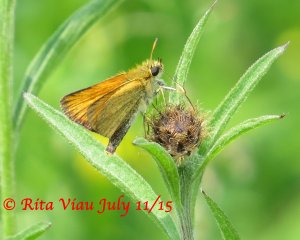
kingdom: Animalia
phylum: Arthropoda
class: Insecta
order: Lepidoptera
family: Hesperiidae
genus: Thymelicus
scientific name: Thymelicus lineola
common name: European Skipper
